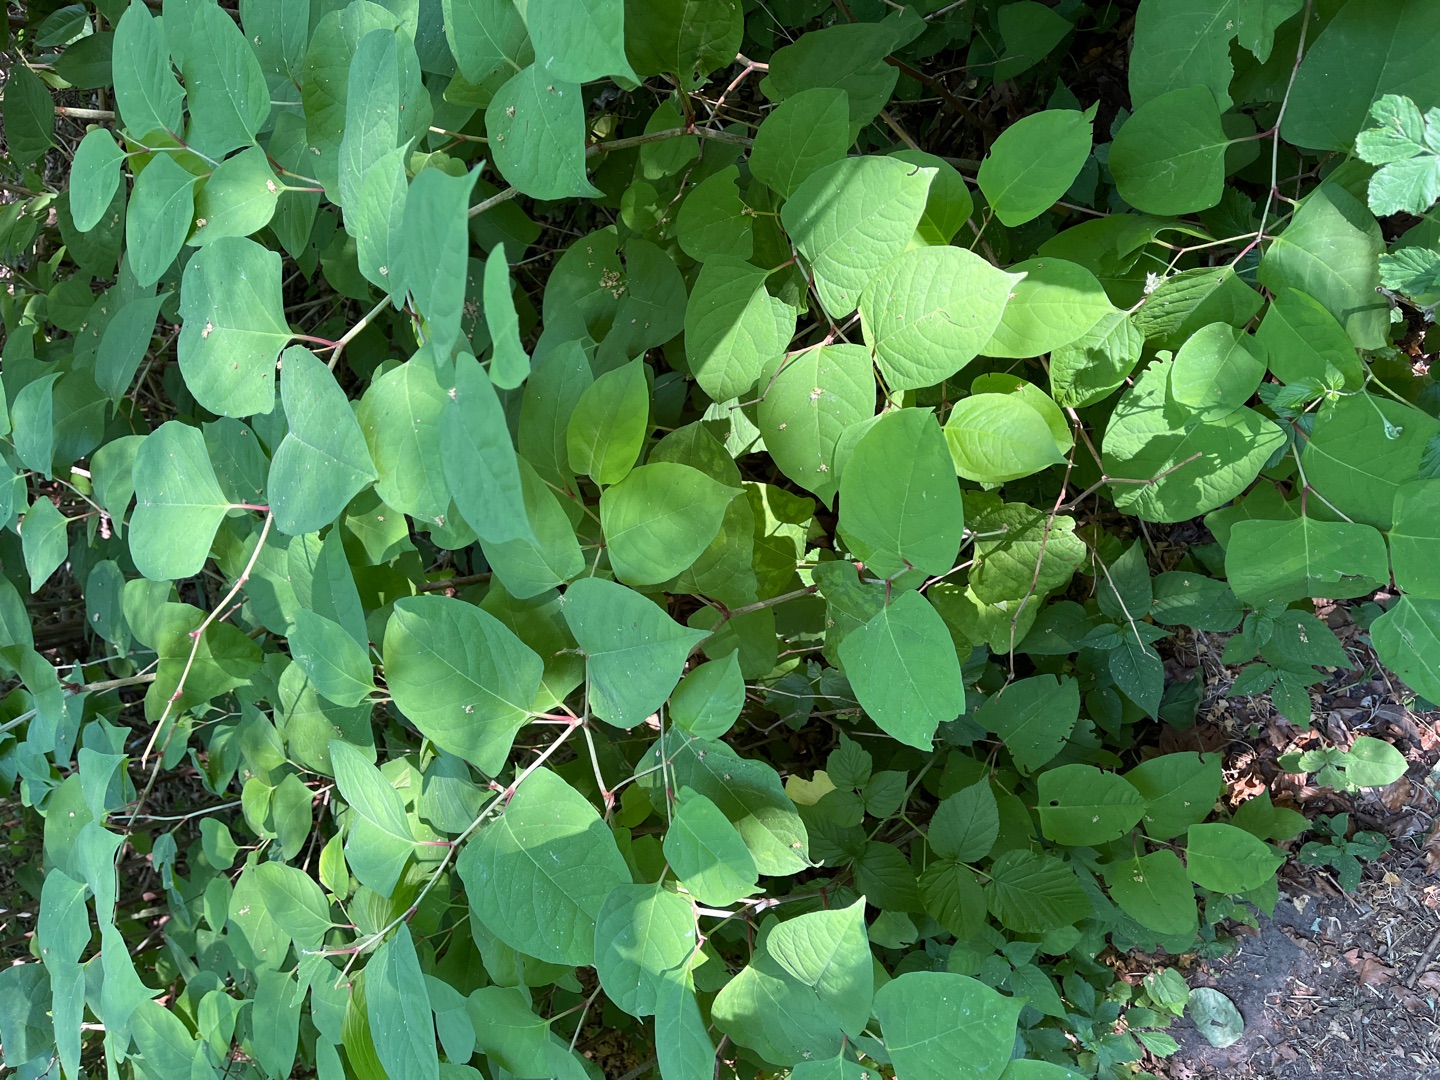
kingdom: Plantae
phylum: Tracheophyta
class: Magnoliopsida
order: Caryophyllales
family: Polygonaceae
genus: Reynoutria
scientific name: Reynoutria japonica
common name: Japan-pileurt
